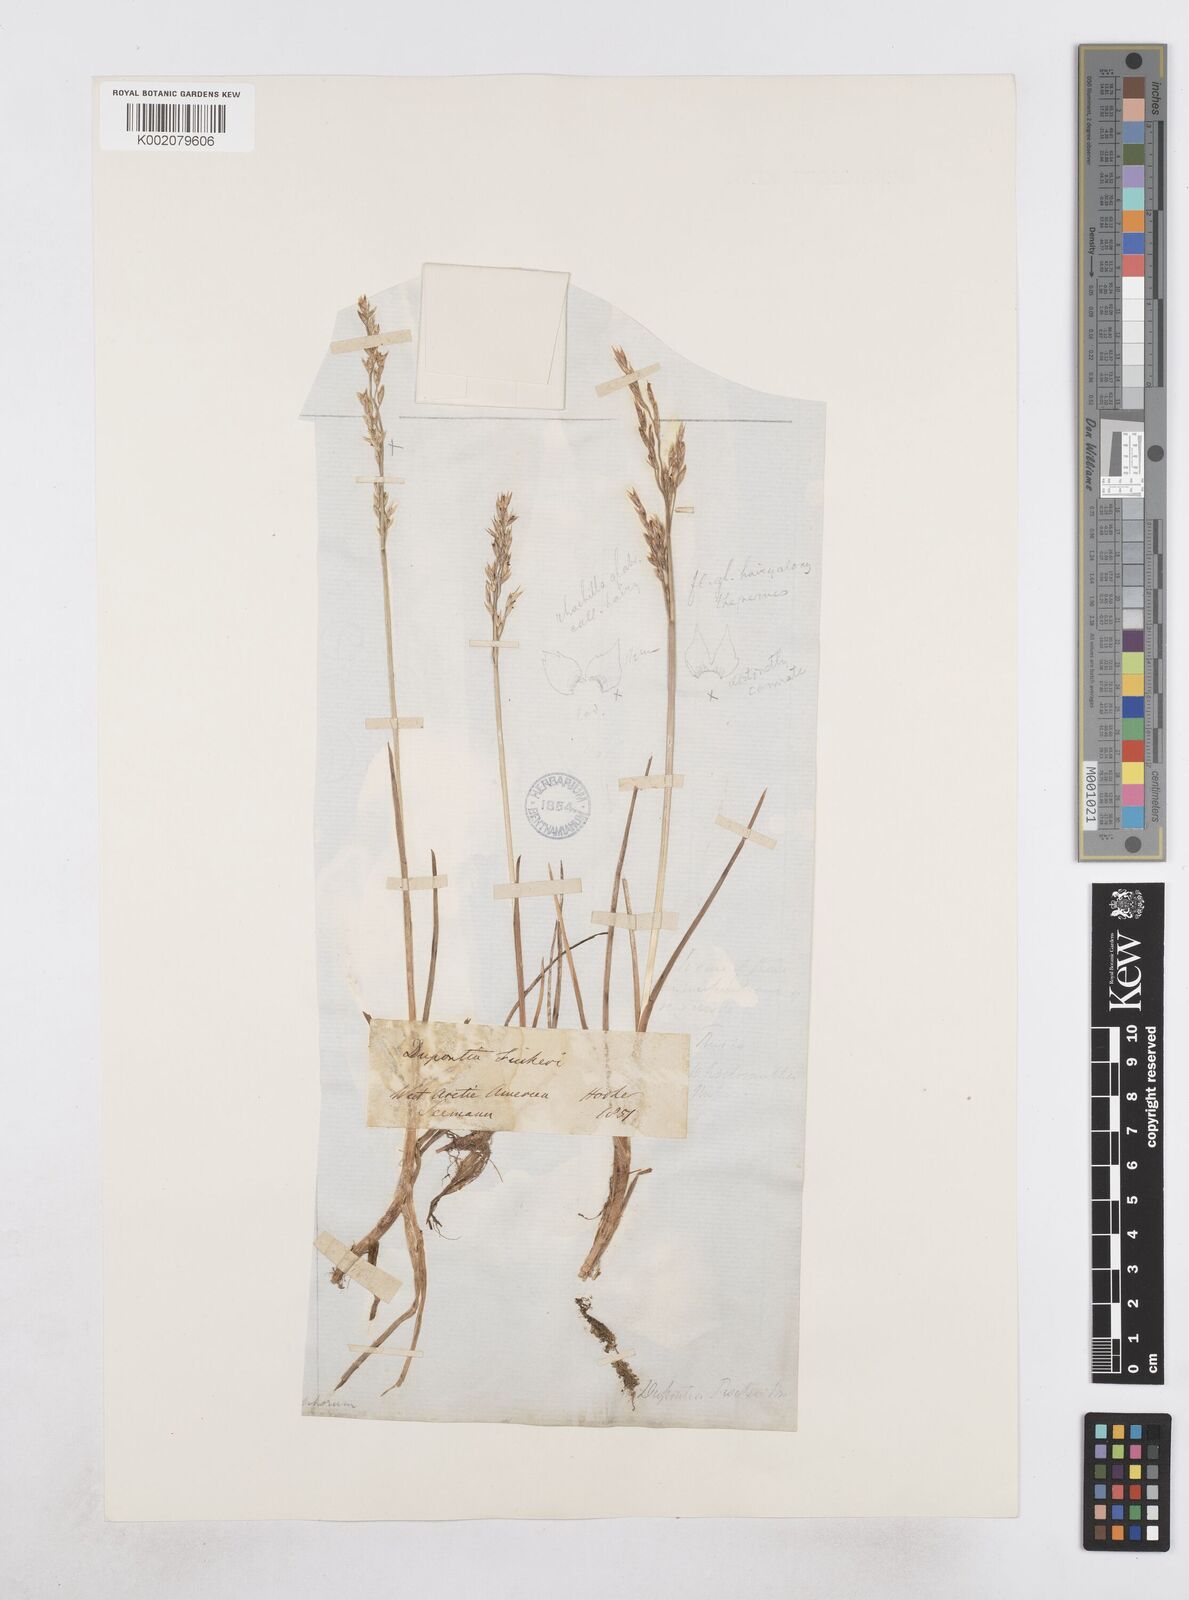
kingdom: Plantae
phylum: Tracheophyta
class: Liliopsida
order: Poales
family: Poaceae
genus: Dupontia
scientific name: Dupontia fisheri
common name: Tundra grass
